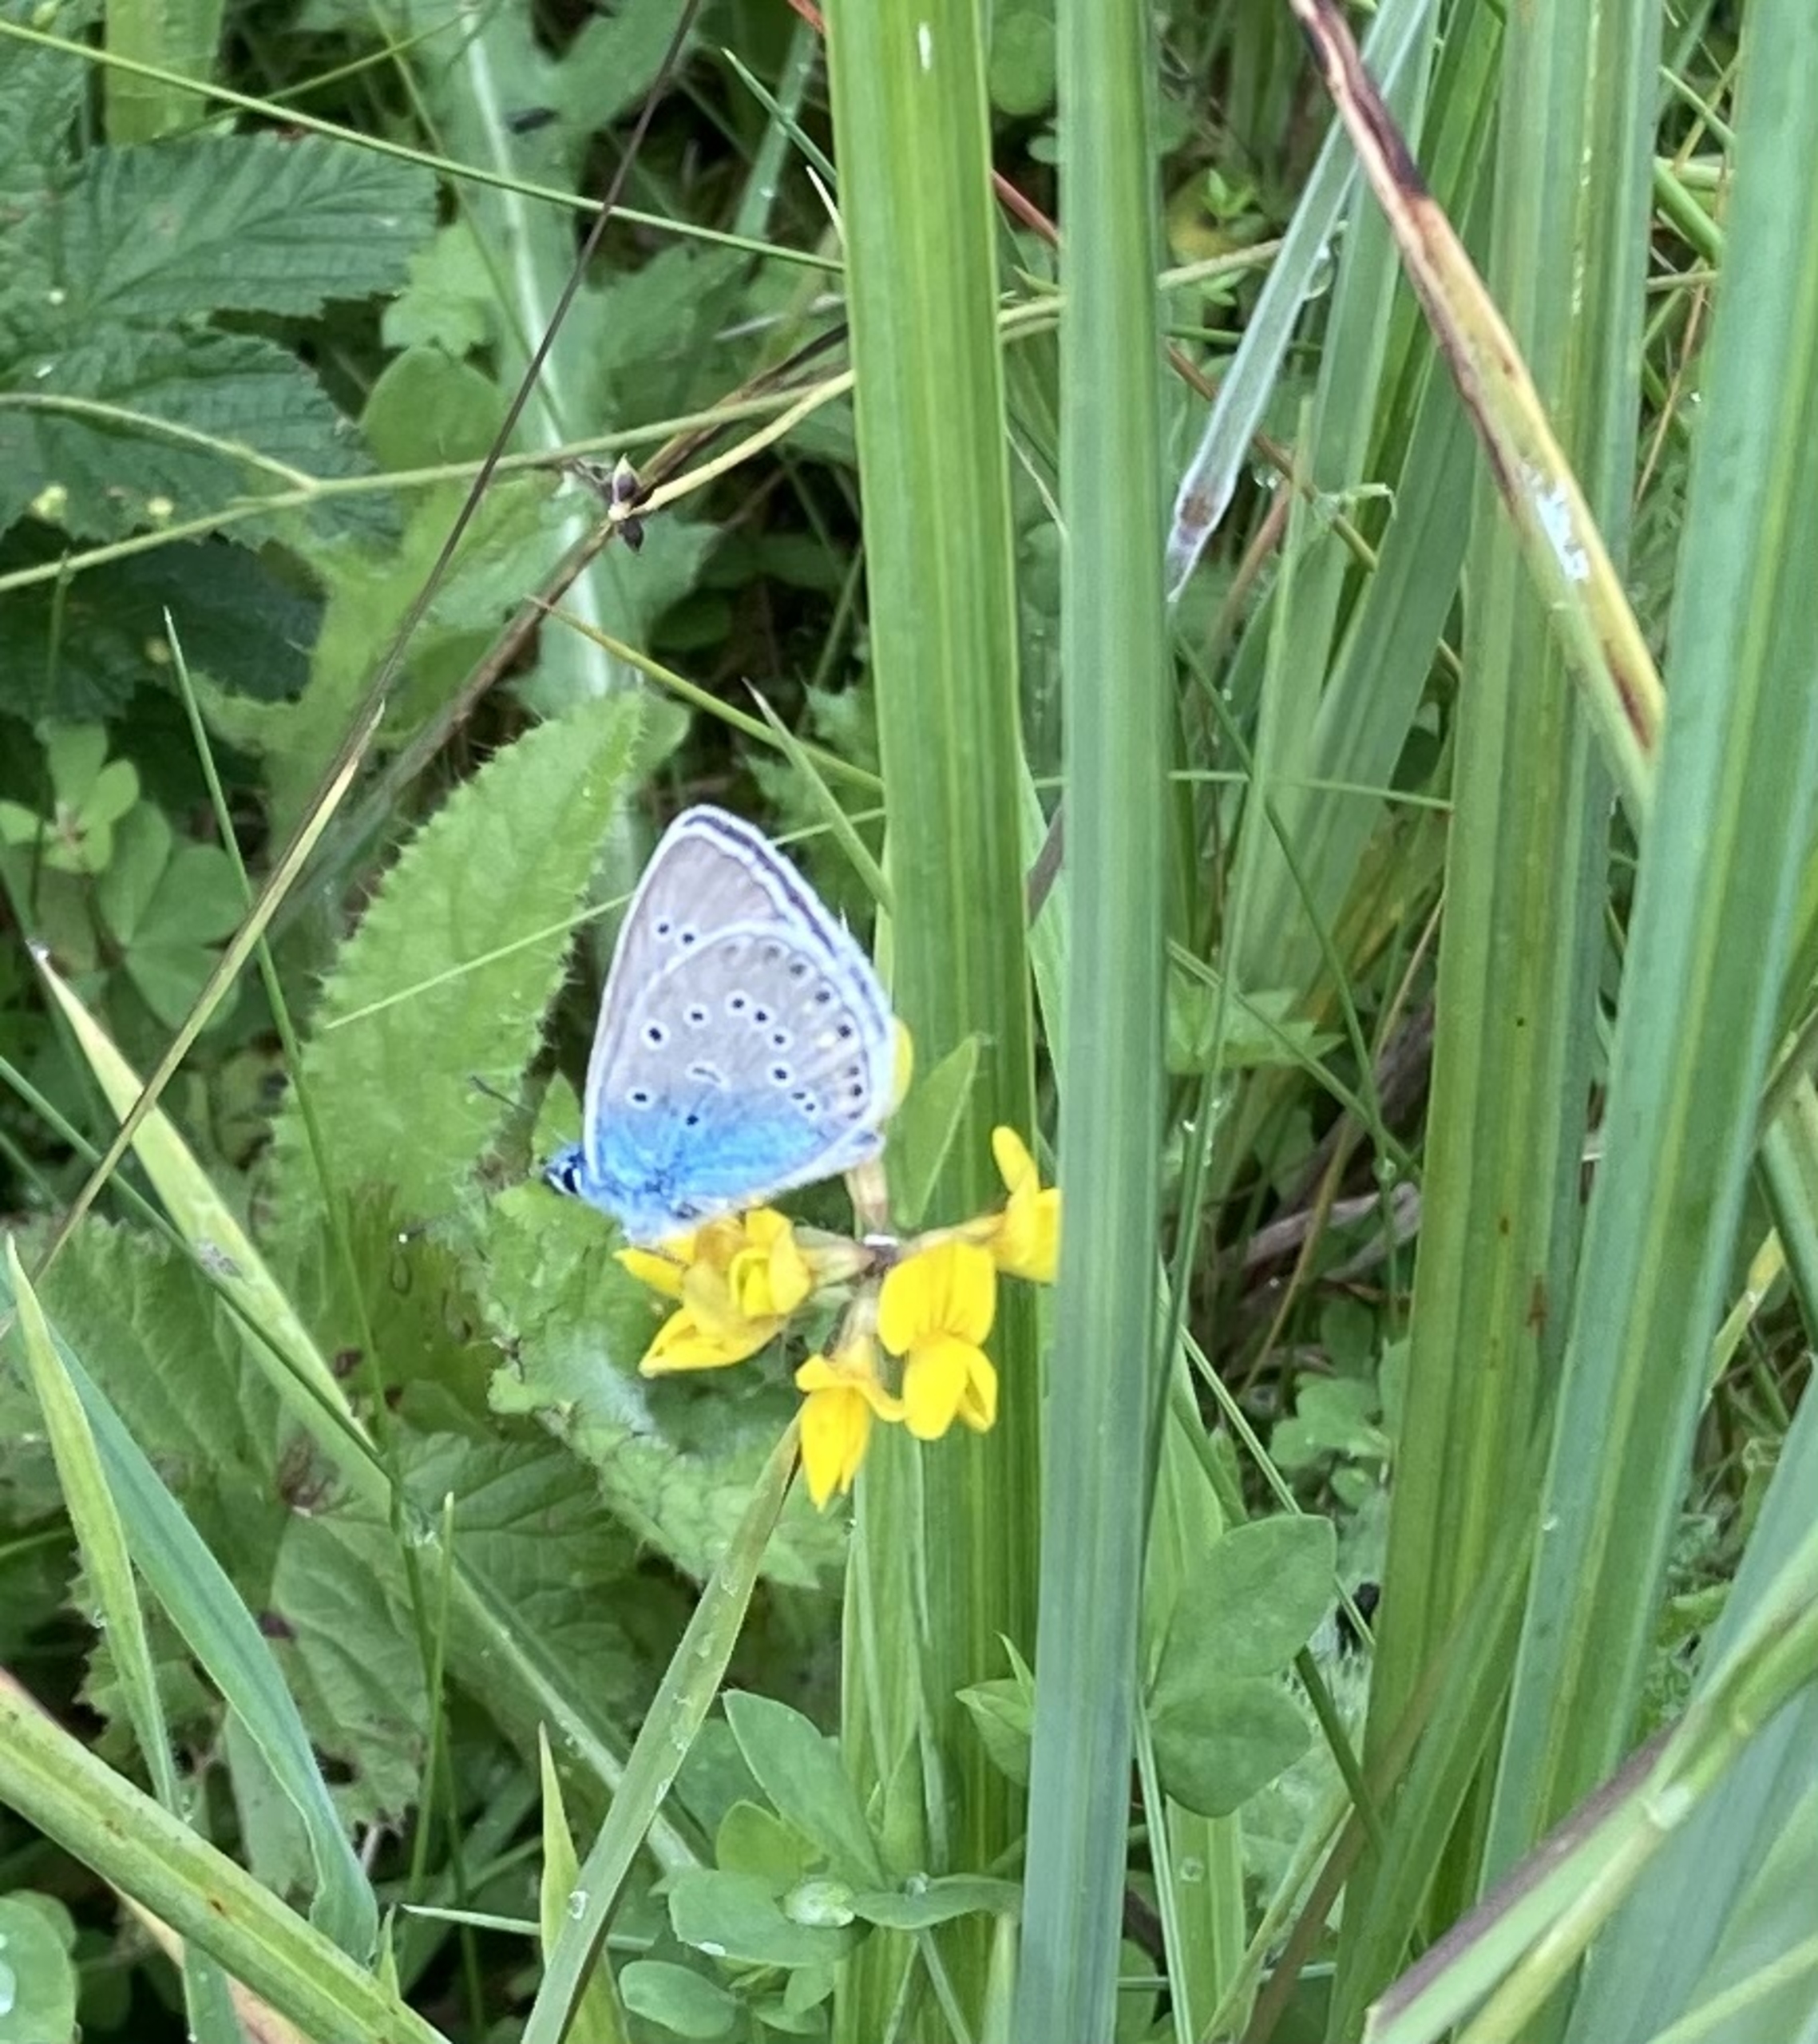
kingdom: Animalia
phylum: Arthropoda
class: Insecta
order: Lepidoptera
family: Lycaenidae
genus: Plebejus
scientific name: Plebejus amanda
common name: Isblåfugl
